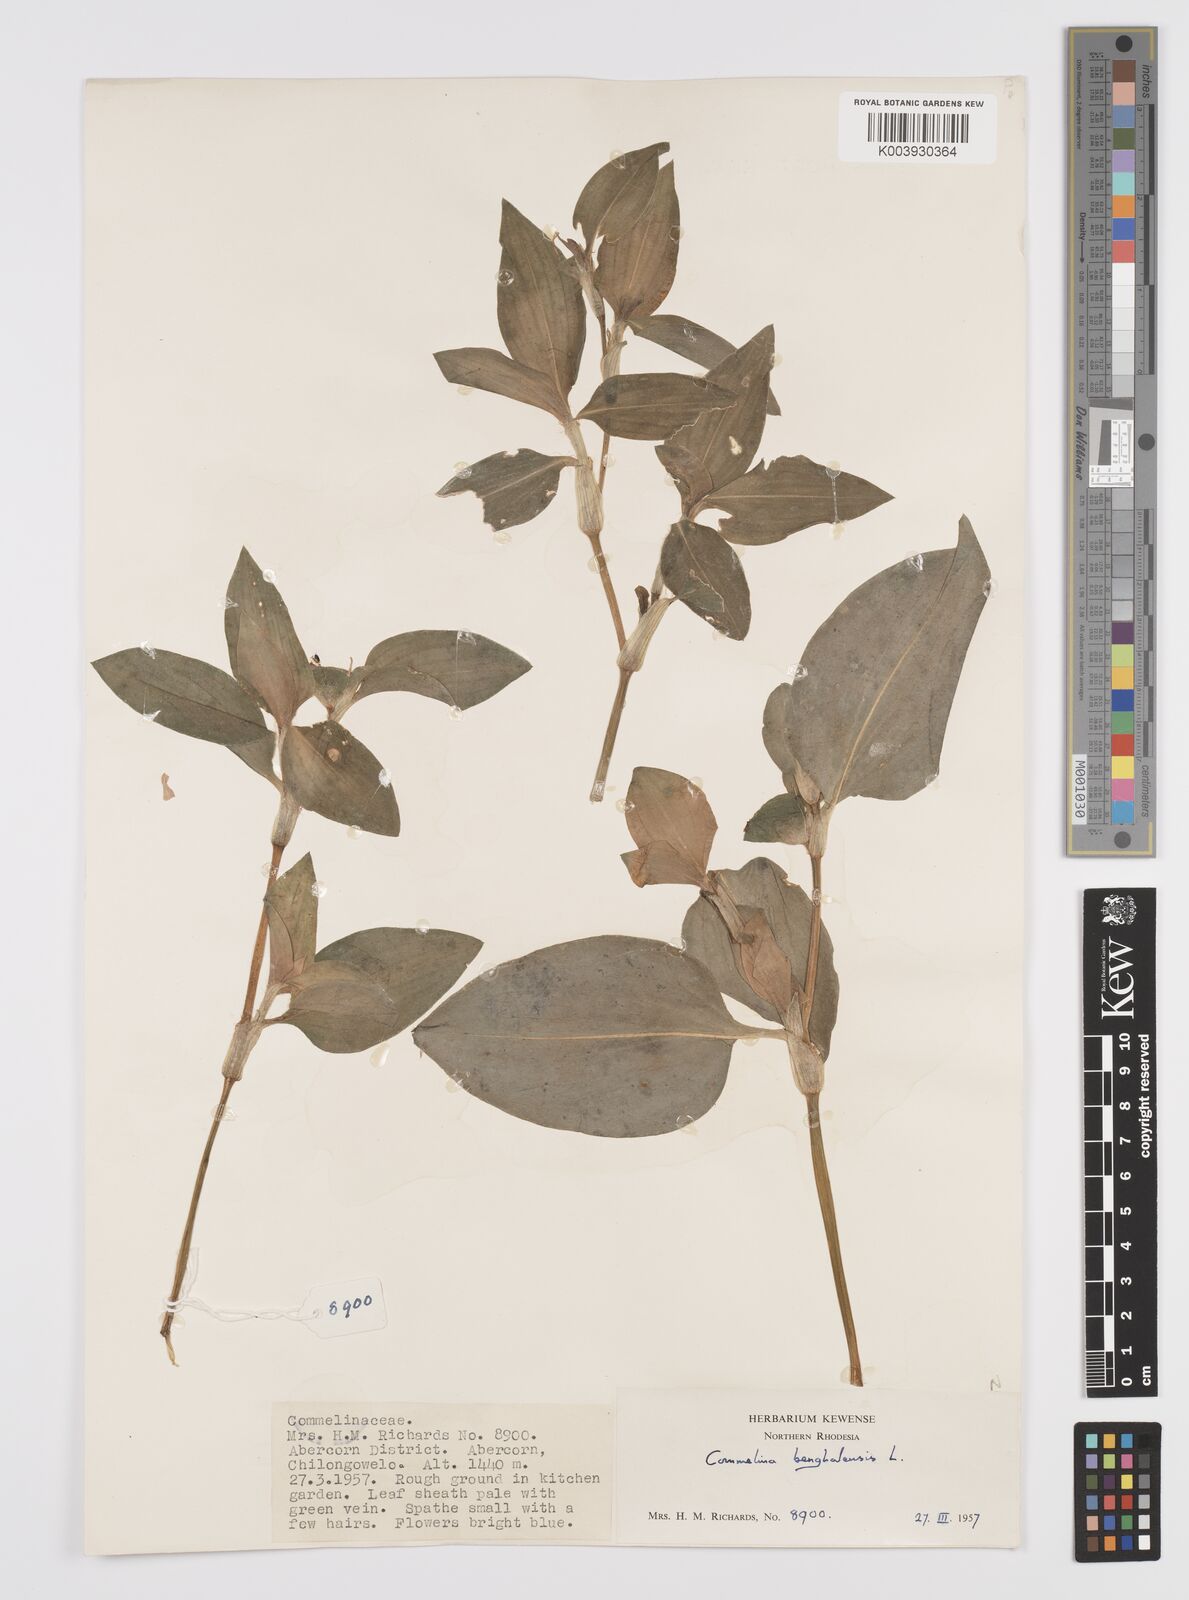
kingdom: Plantae
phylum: Tracheophyta
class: Liliopsida
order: Commelinales
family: Commelinaceae
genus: Commelina
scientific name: Commelina benghalensis
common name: Jio
